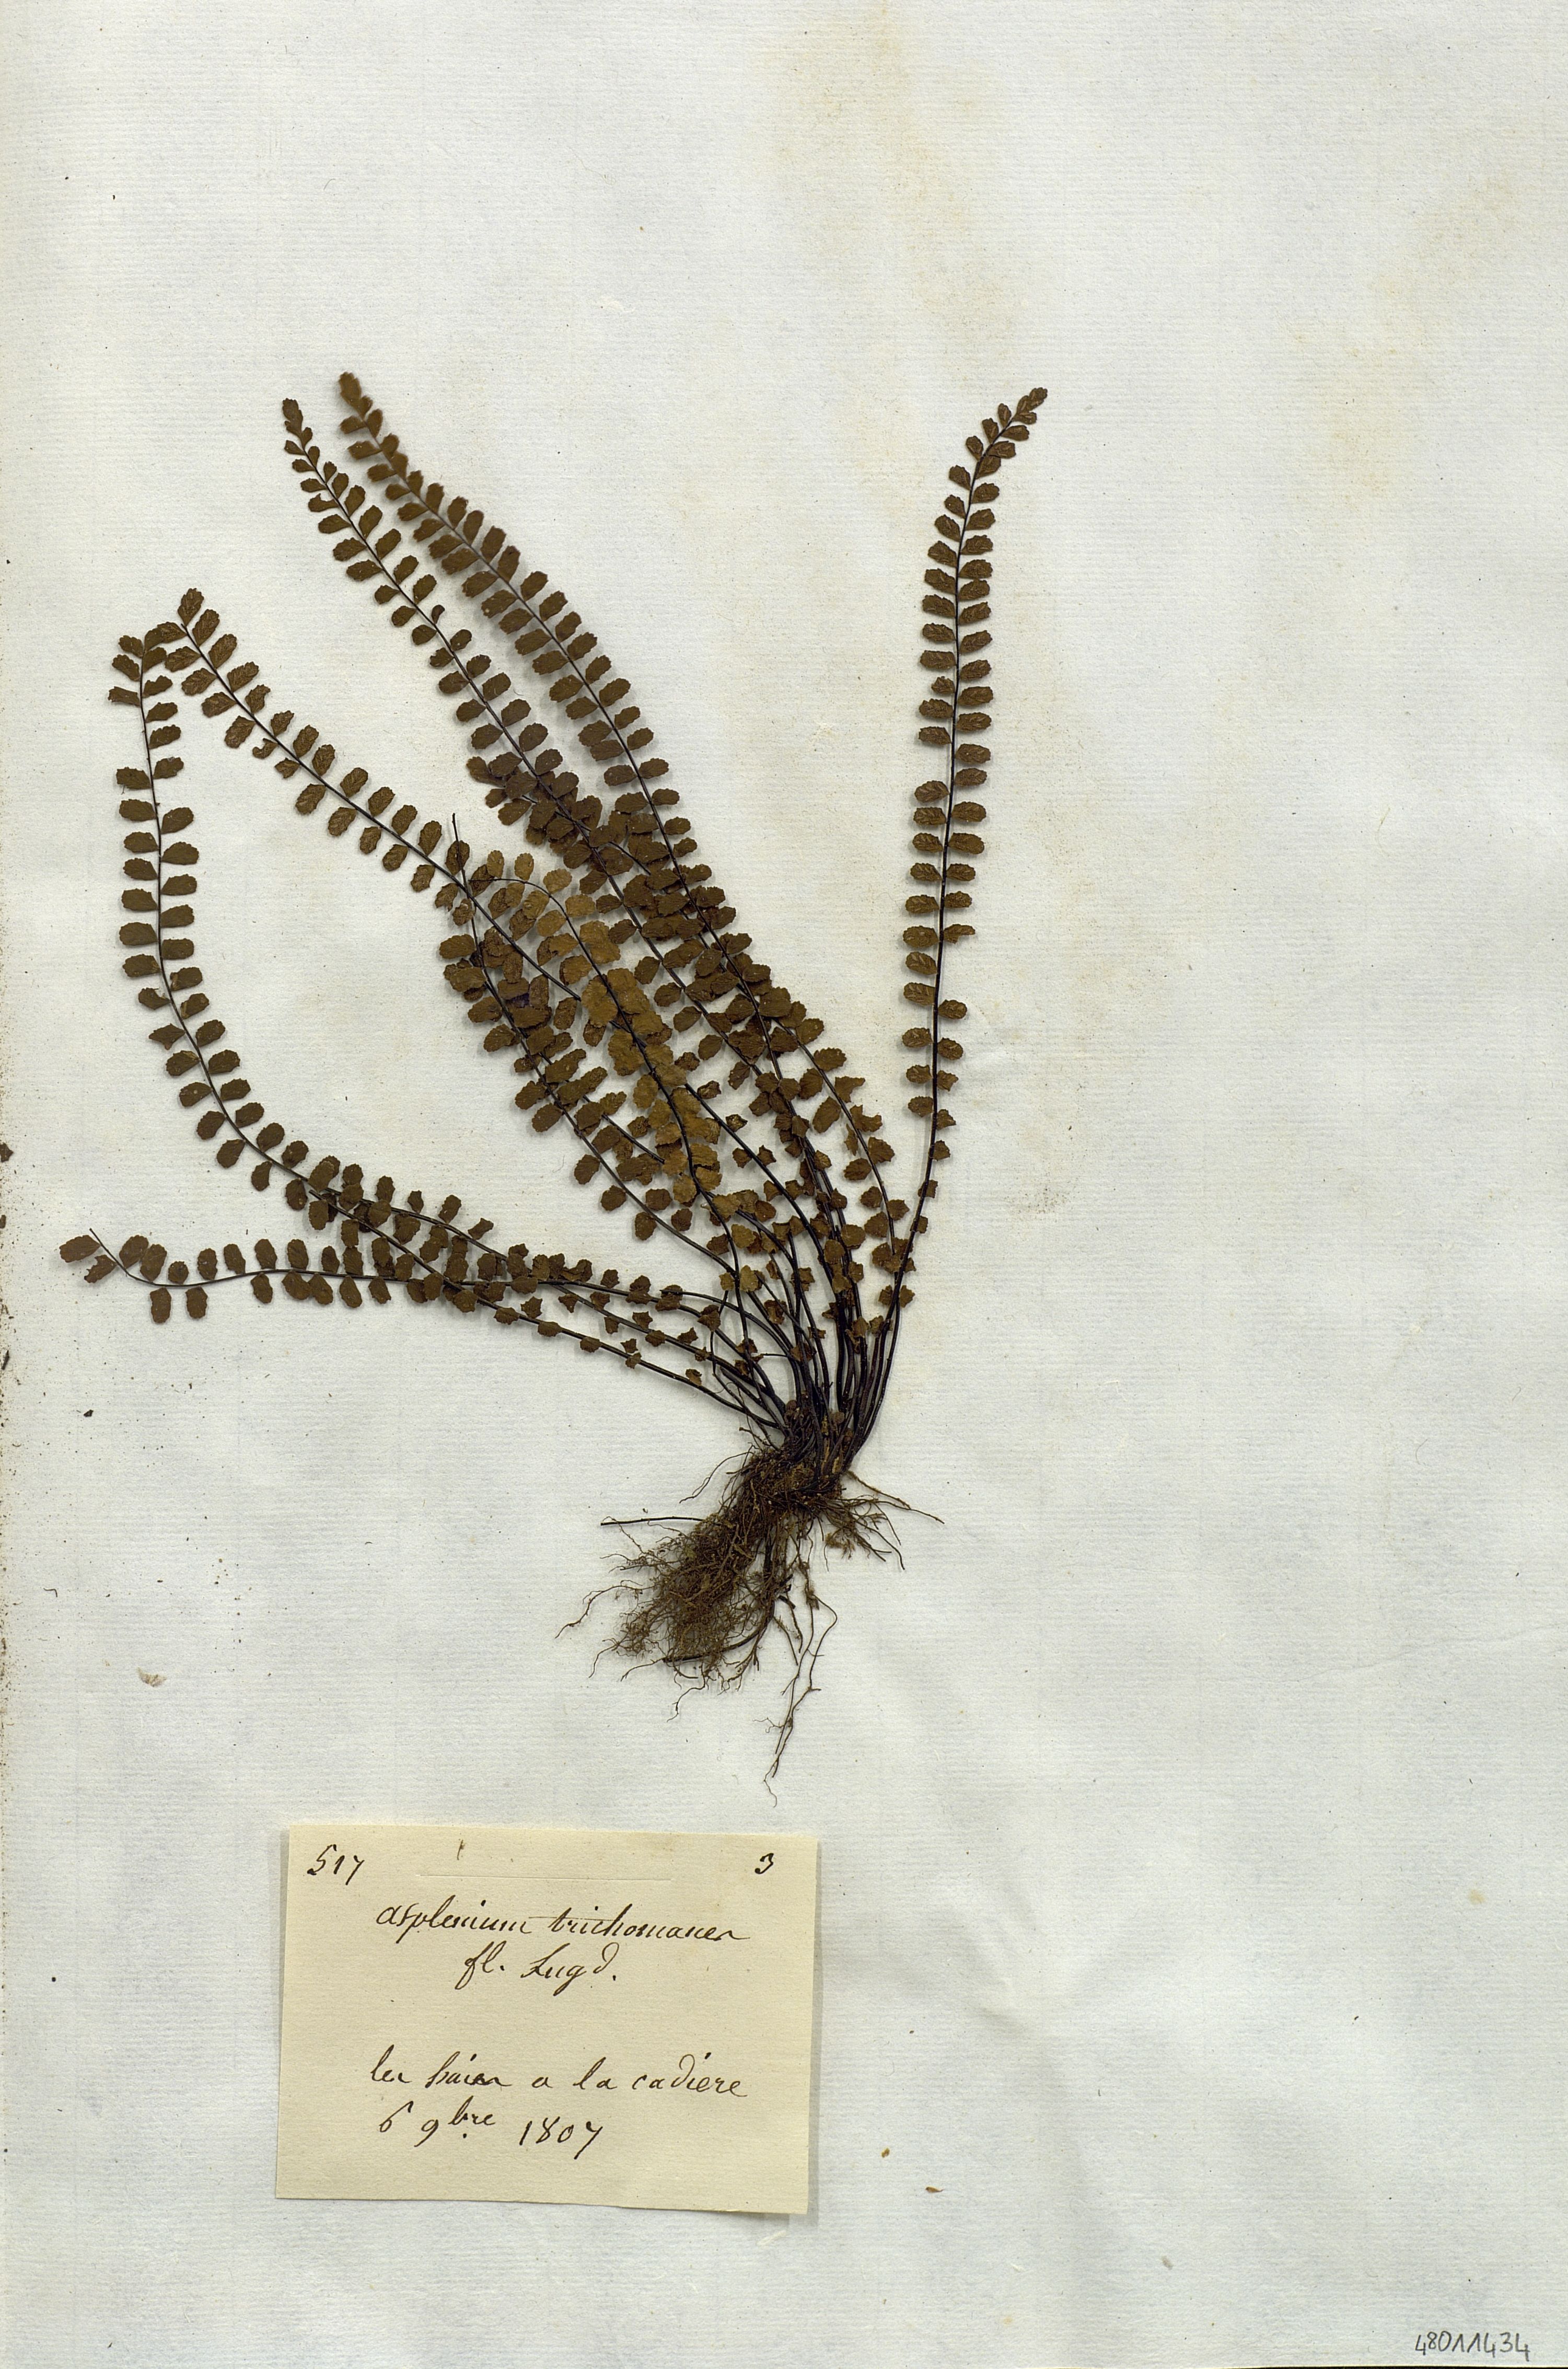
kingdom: Plantae
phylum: Tracheophyta
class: Polypodiopsida
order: Polypodiales
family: Aspleniaceae
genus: Asplenium
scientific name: Asplenium trichomanes
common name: Maidenhair spleenwort
